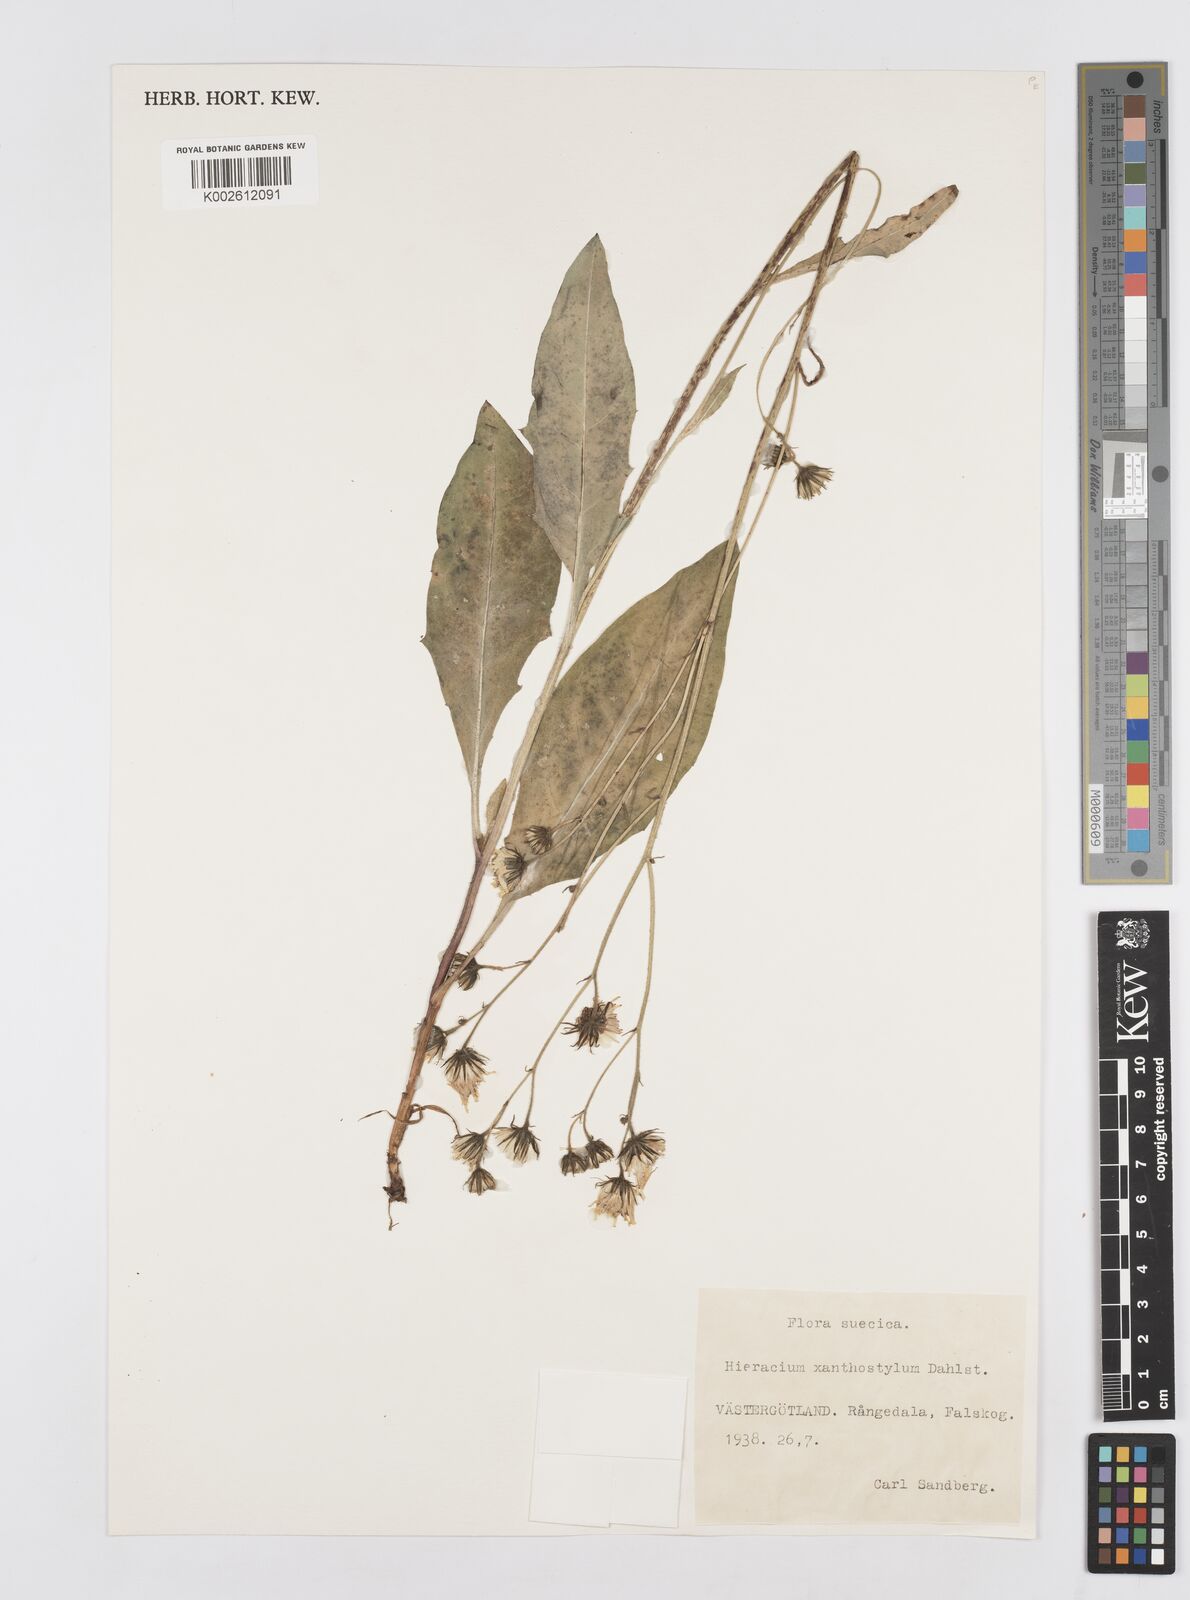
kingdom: Plantae
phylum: Tracheophyta
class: Magnoliopsida
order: Asterales
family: Asteraceae
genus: Hieracium
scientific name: Hieracium xanthostylum
